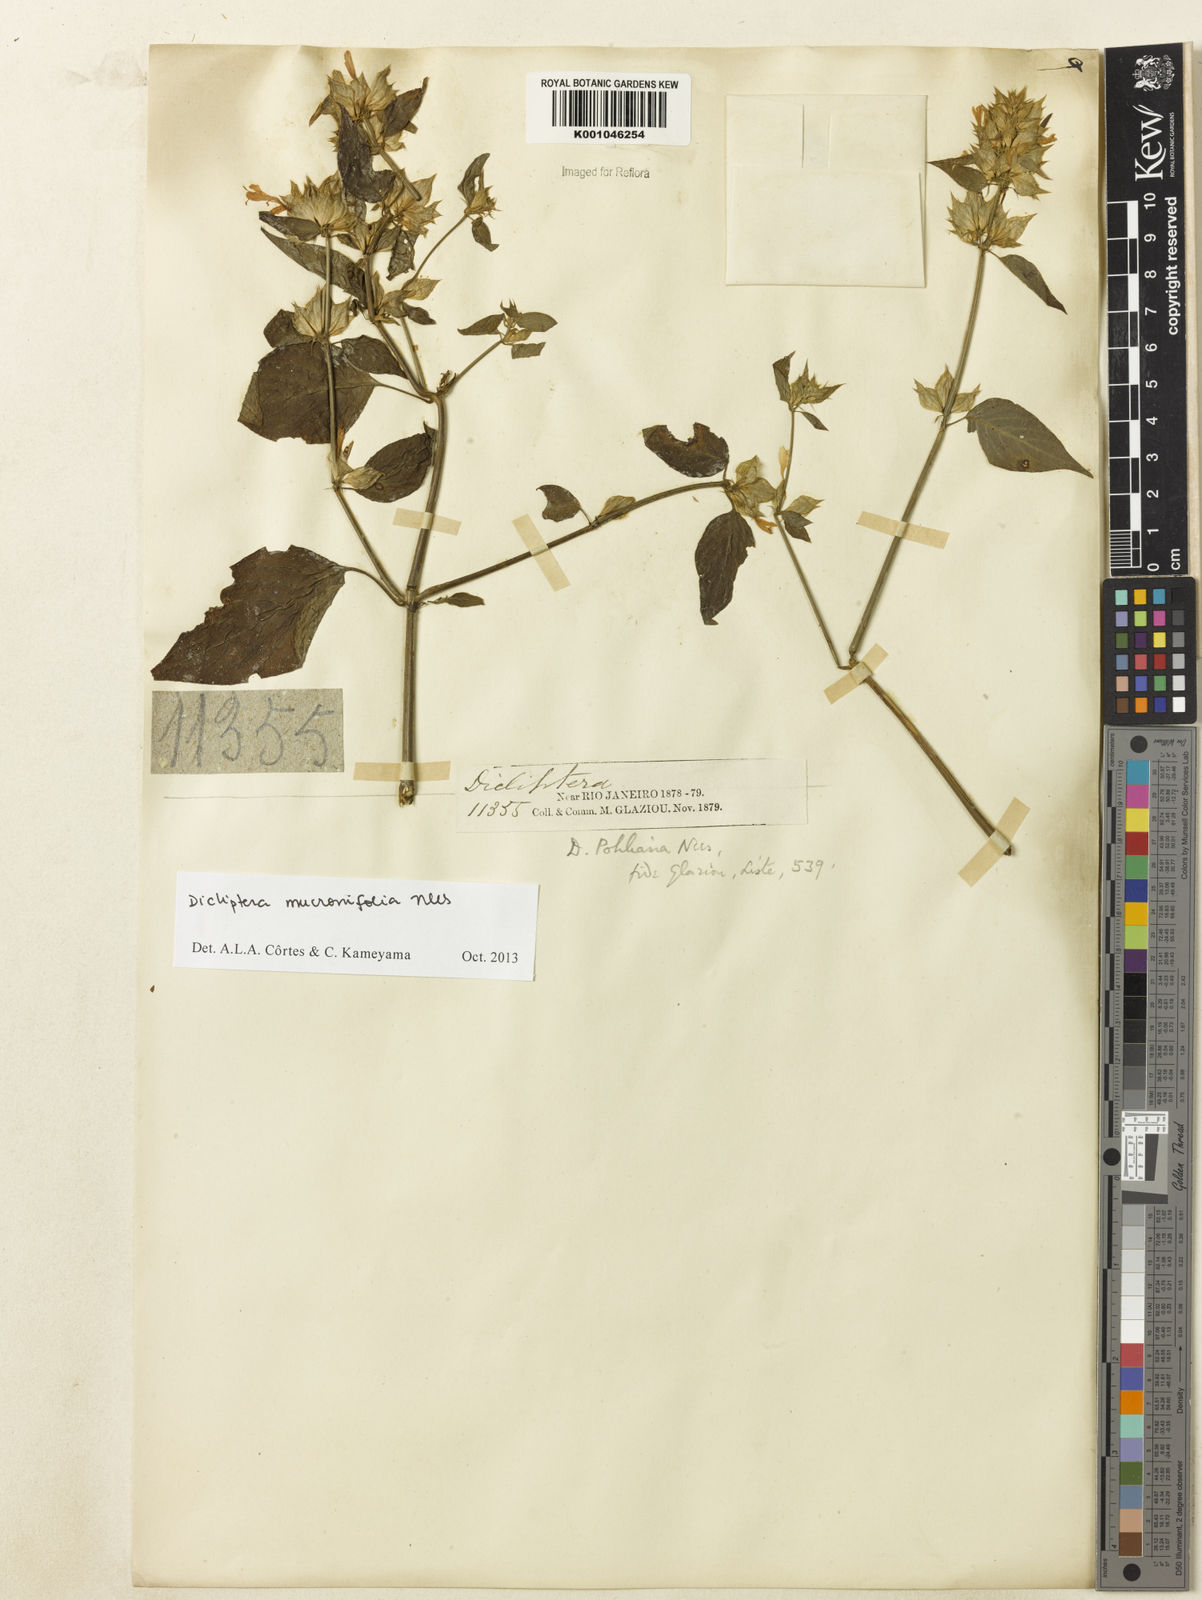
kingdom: Plantae
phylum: Tracheophyta
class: Magnoliopsida
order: Lamiales
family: Acanthaceae
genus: Dicliptera
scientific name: Dicliptera mucronifolia
